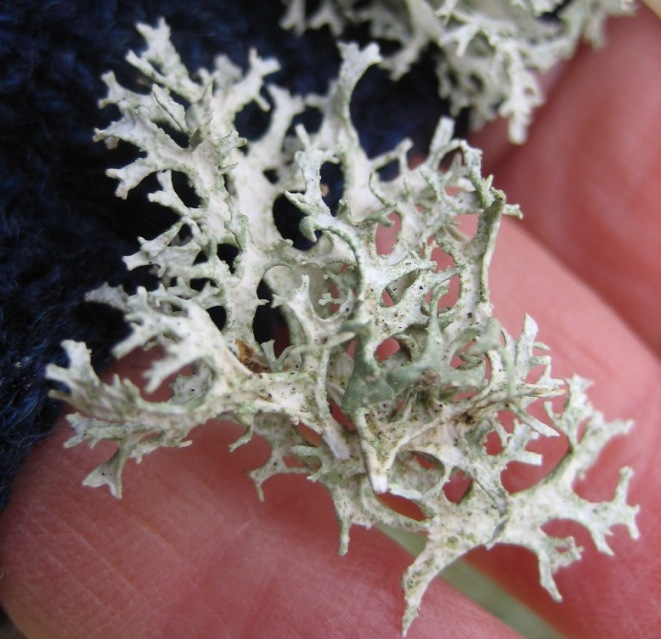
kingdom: Fungi
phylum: Ascomycota
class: Lecanoromycetes
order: Lecanorales
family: Parmeliaceae
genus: Evernia
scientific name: Evernia prunastri
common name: almindelig slåenlav
